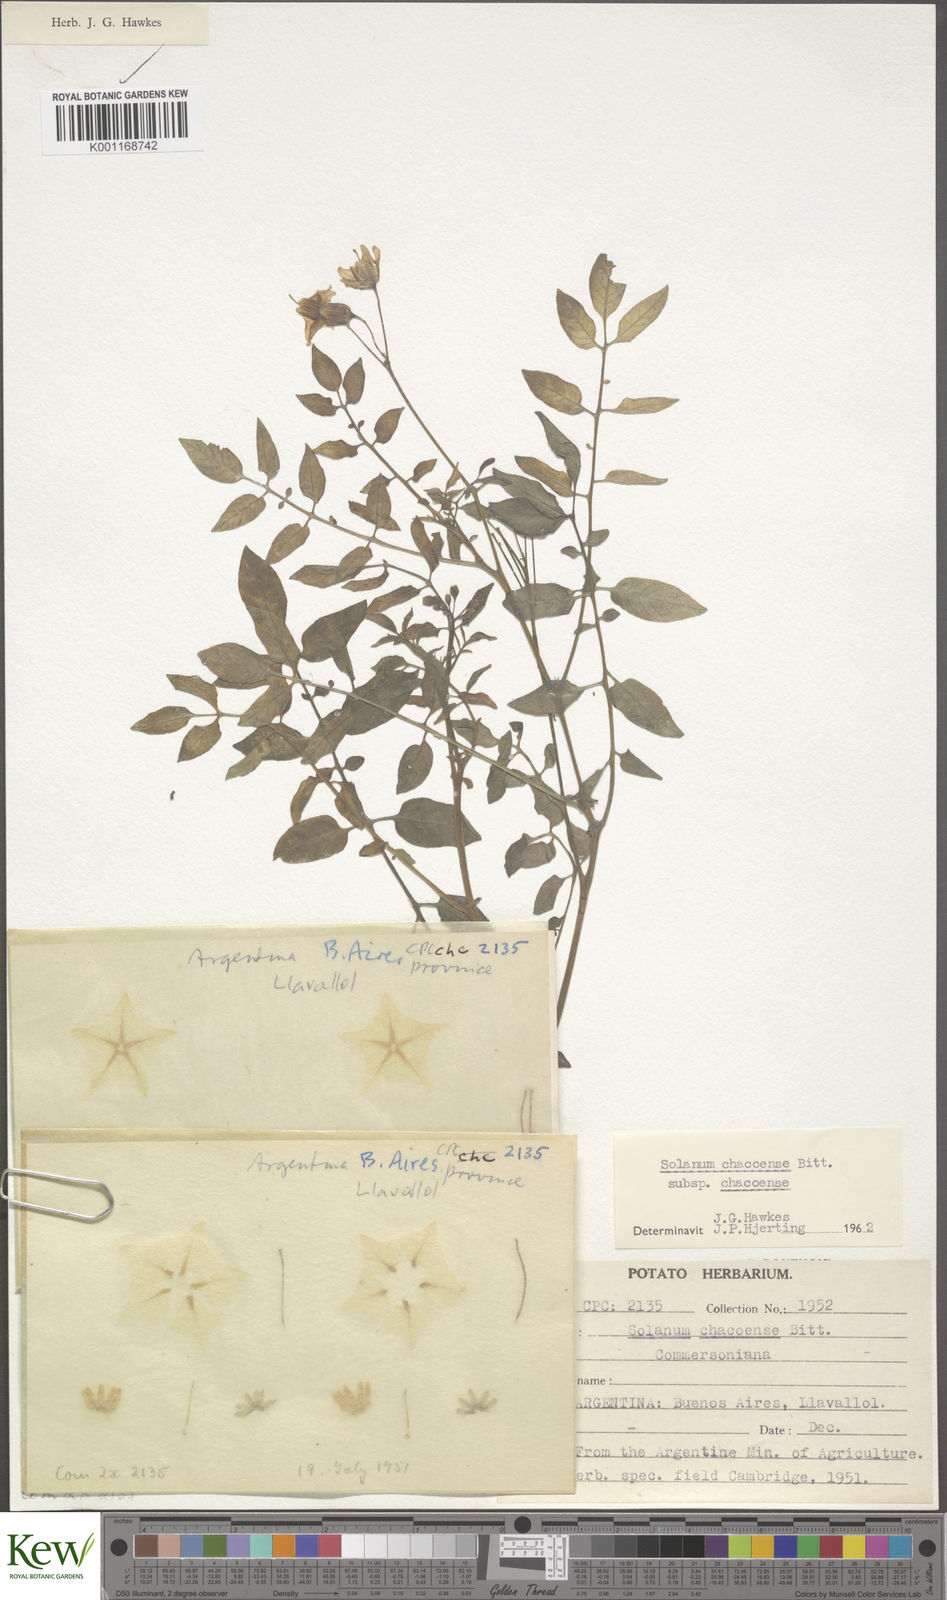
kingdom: Plantae
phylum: Tracheophyta
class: Magnoliopsida
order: Solanales
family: Solanaceae
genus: Solanum
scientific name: Solanum chacoense
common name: Chaco potato
